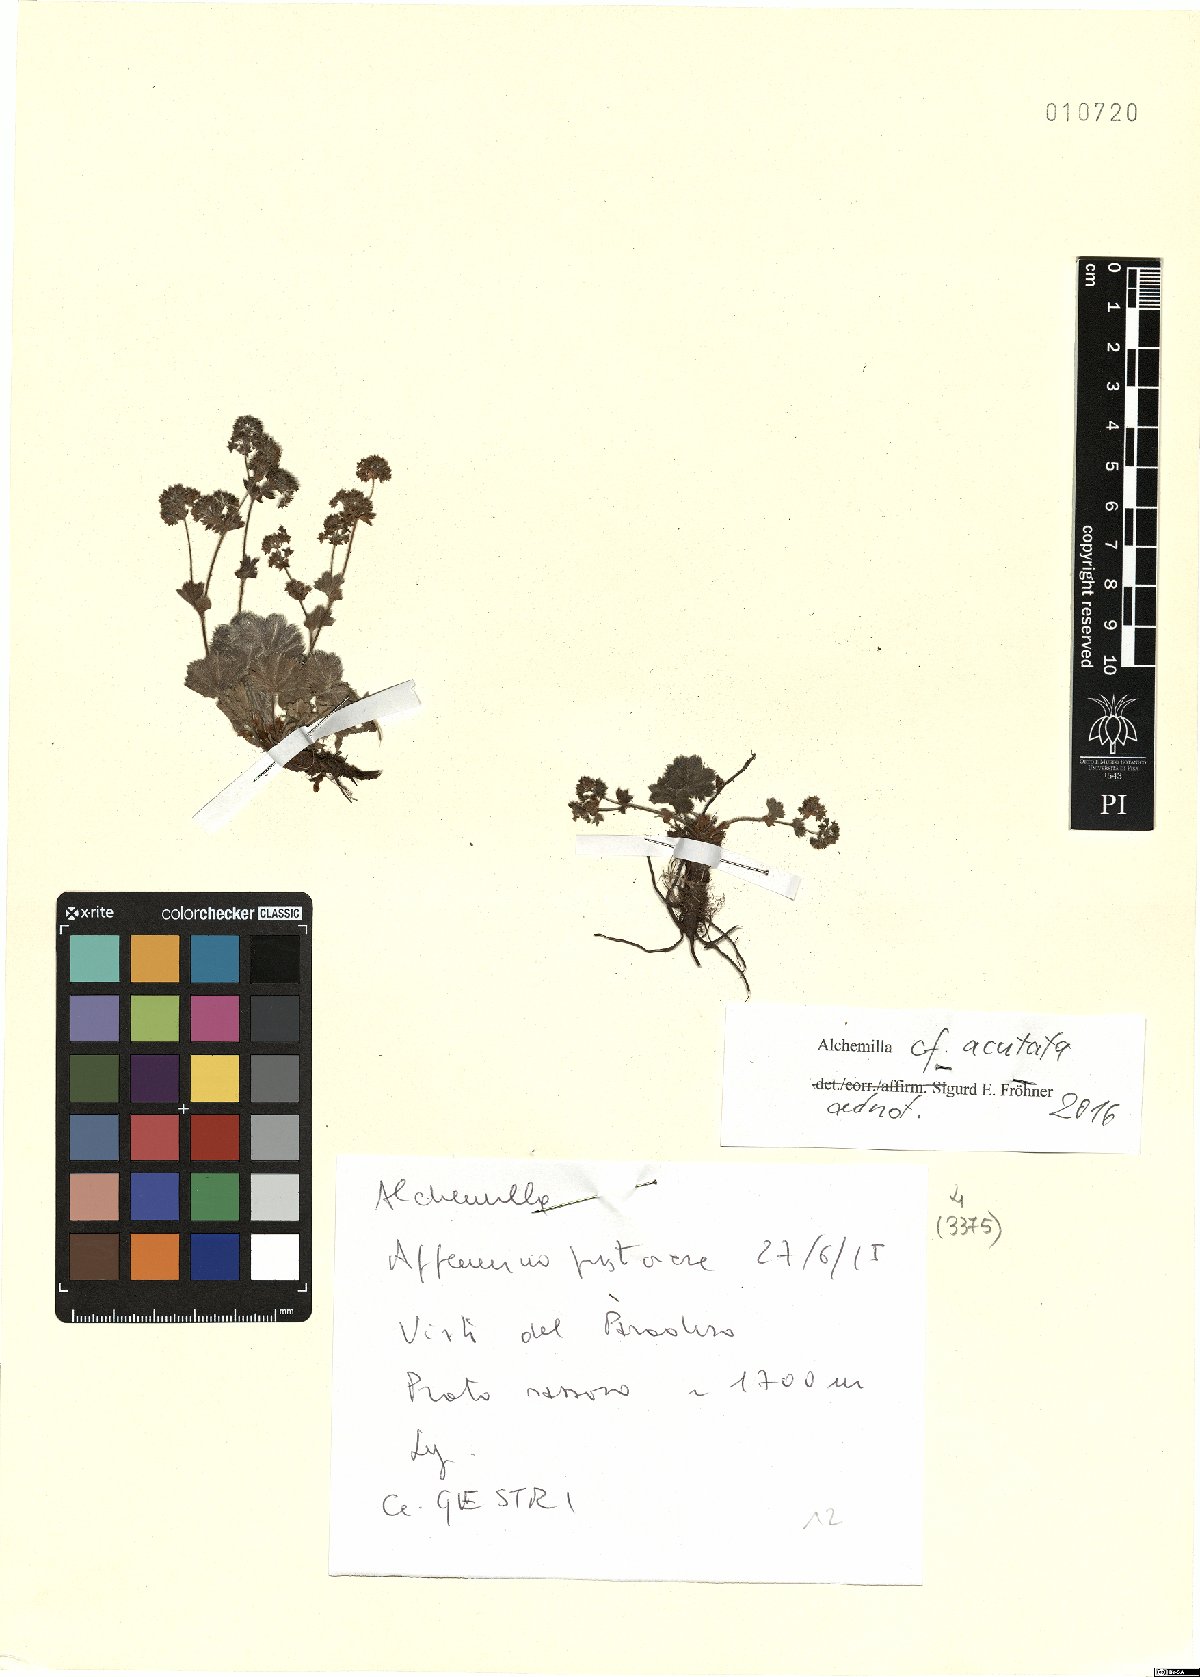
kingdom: Plantae
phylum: Tracheophyta
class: Magnoliopsida
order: Rosales
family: Rosaceae
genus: Alchemilla
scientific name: Alchemilla acutata
